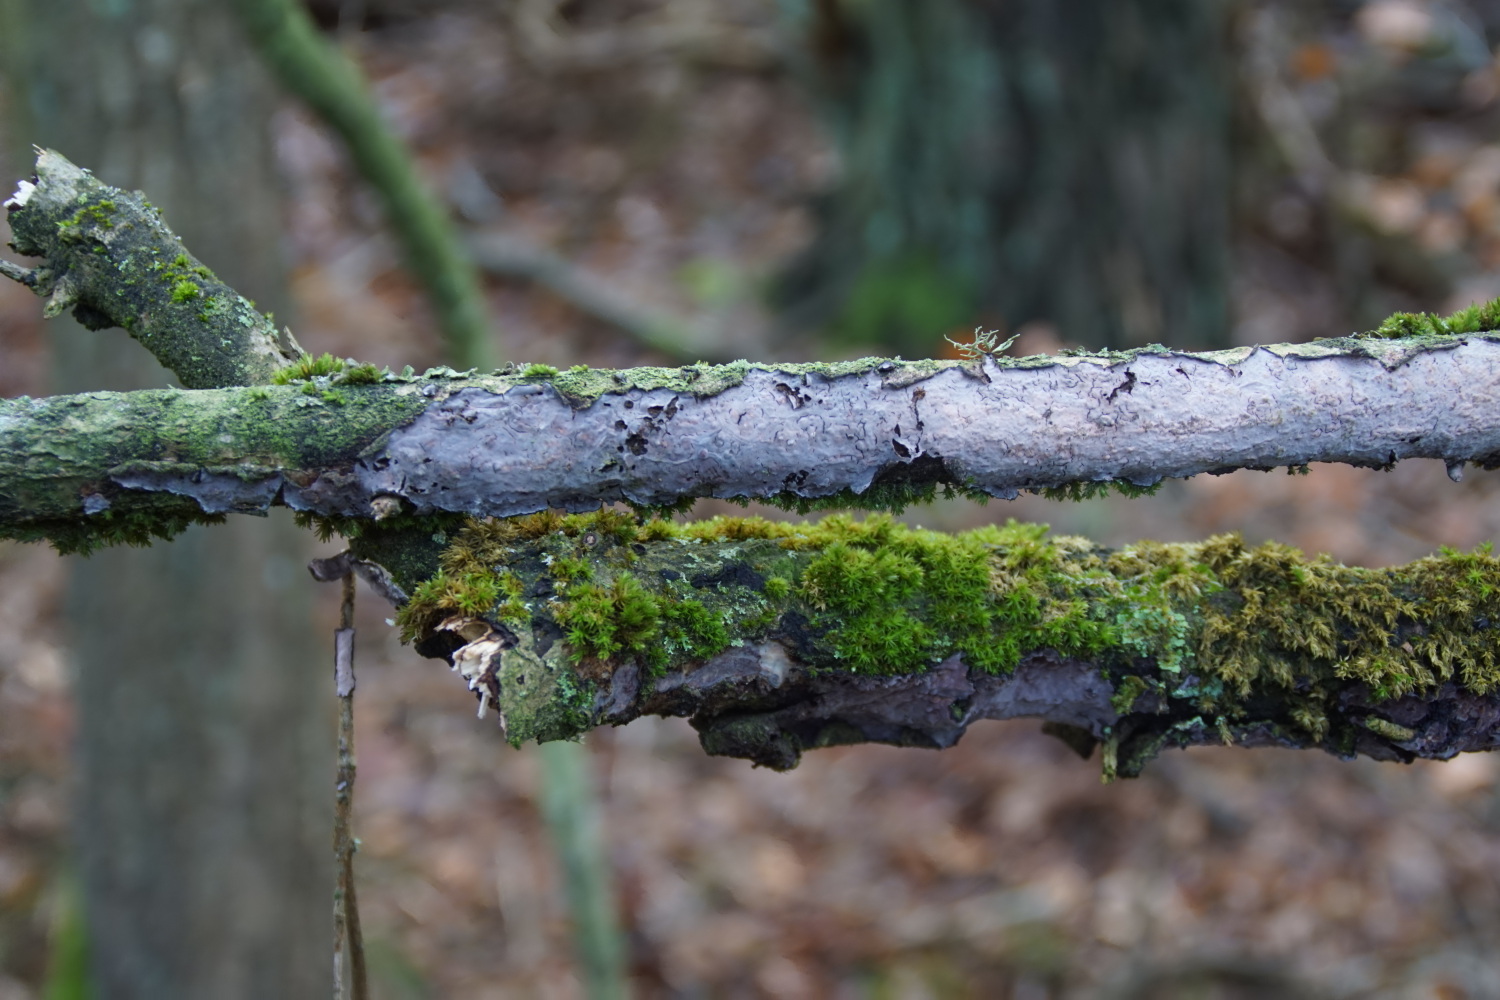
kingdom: Fungi
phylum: Basidiomycota
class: Agaricomycetes
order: Russulales
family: Peniophoraceae
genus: Peniophora
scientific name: Peniophora quercina
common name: ege-voksskind
